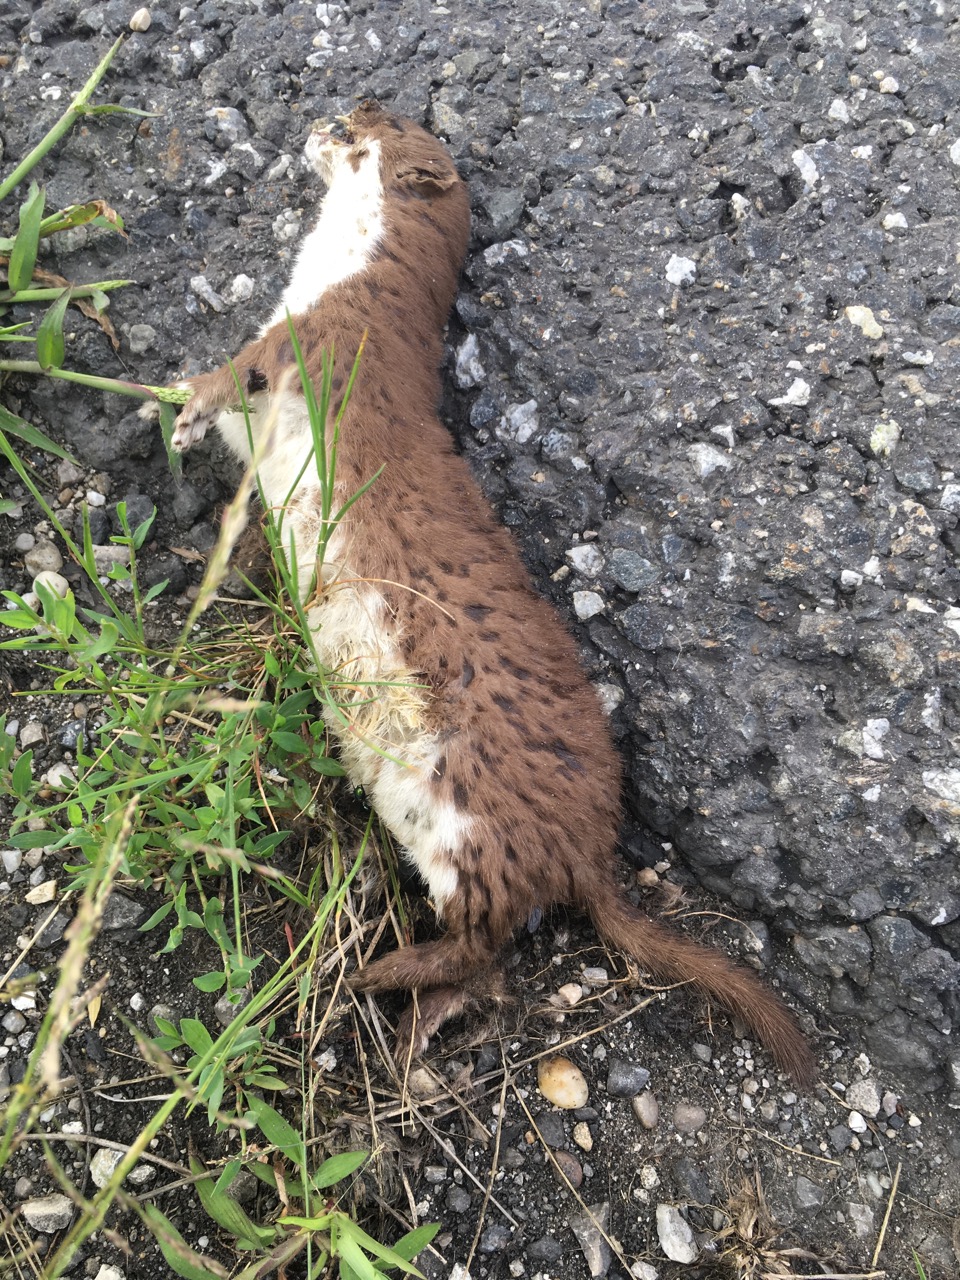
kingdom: Animalia
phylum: Chordata
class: Mammalia
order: Carnivora
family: Mustelidae
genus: Mustela
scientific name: Mustela nivalis
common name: Least weasel
